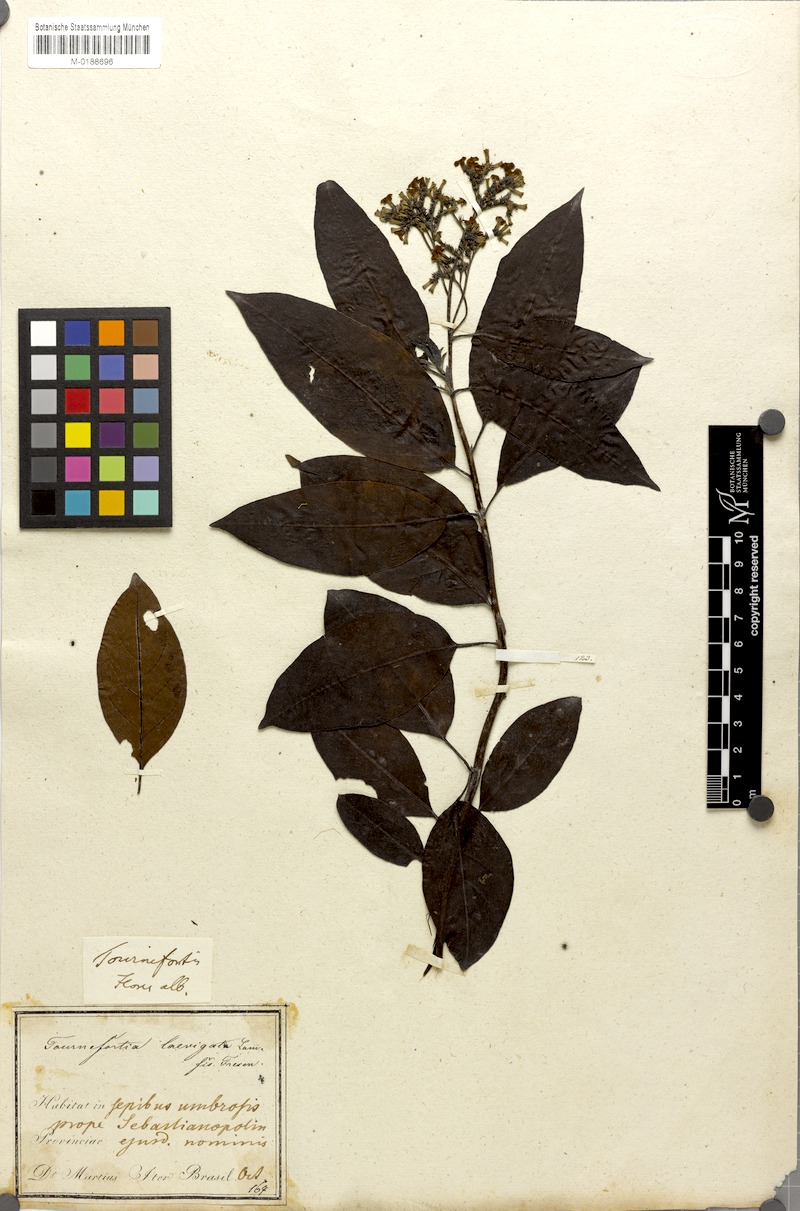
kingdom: Plantae
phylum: Tracheophyta
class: Magnoliopsida
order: Boraginales
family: Heliotropiaceae
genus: Heliotropium
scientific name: Heliotropium verdcourtii
